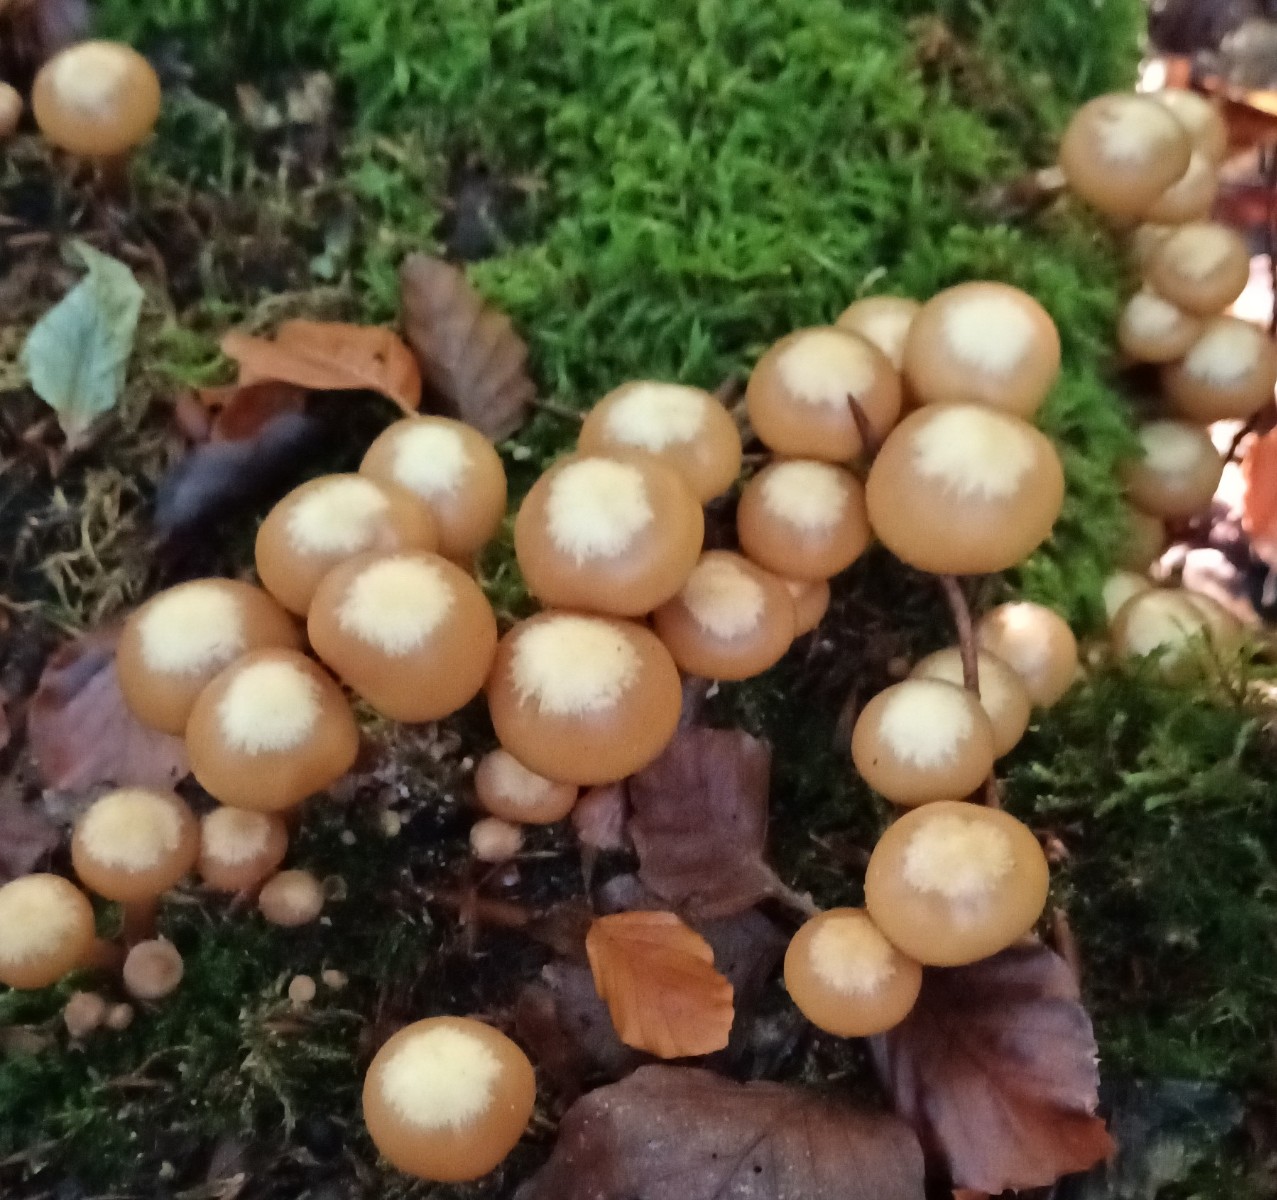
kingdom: Fungi
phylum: Basidiomycota
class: Agaricomycetes
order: Agaricales
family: Strophariaceae
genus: Kuehneromyces
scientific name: Kuehneromyces mutabilis
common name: foranderlig skælhat
